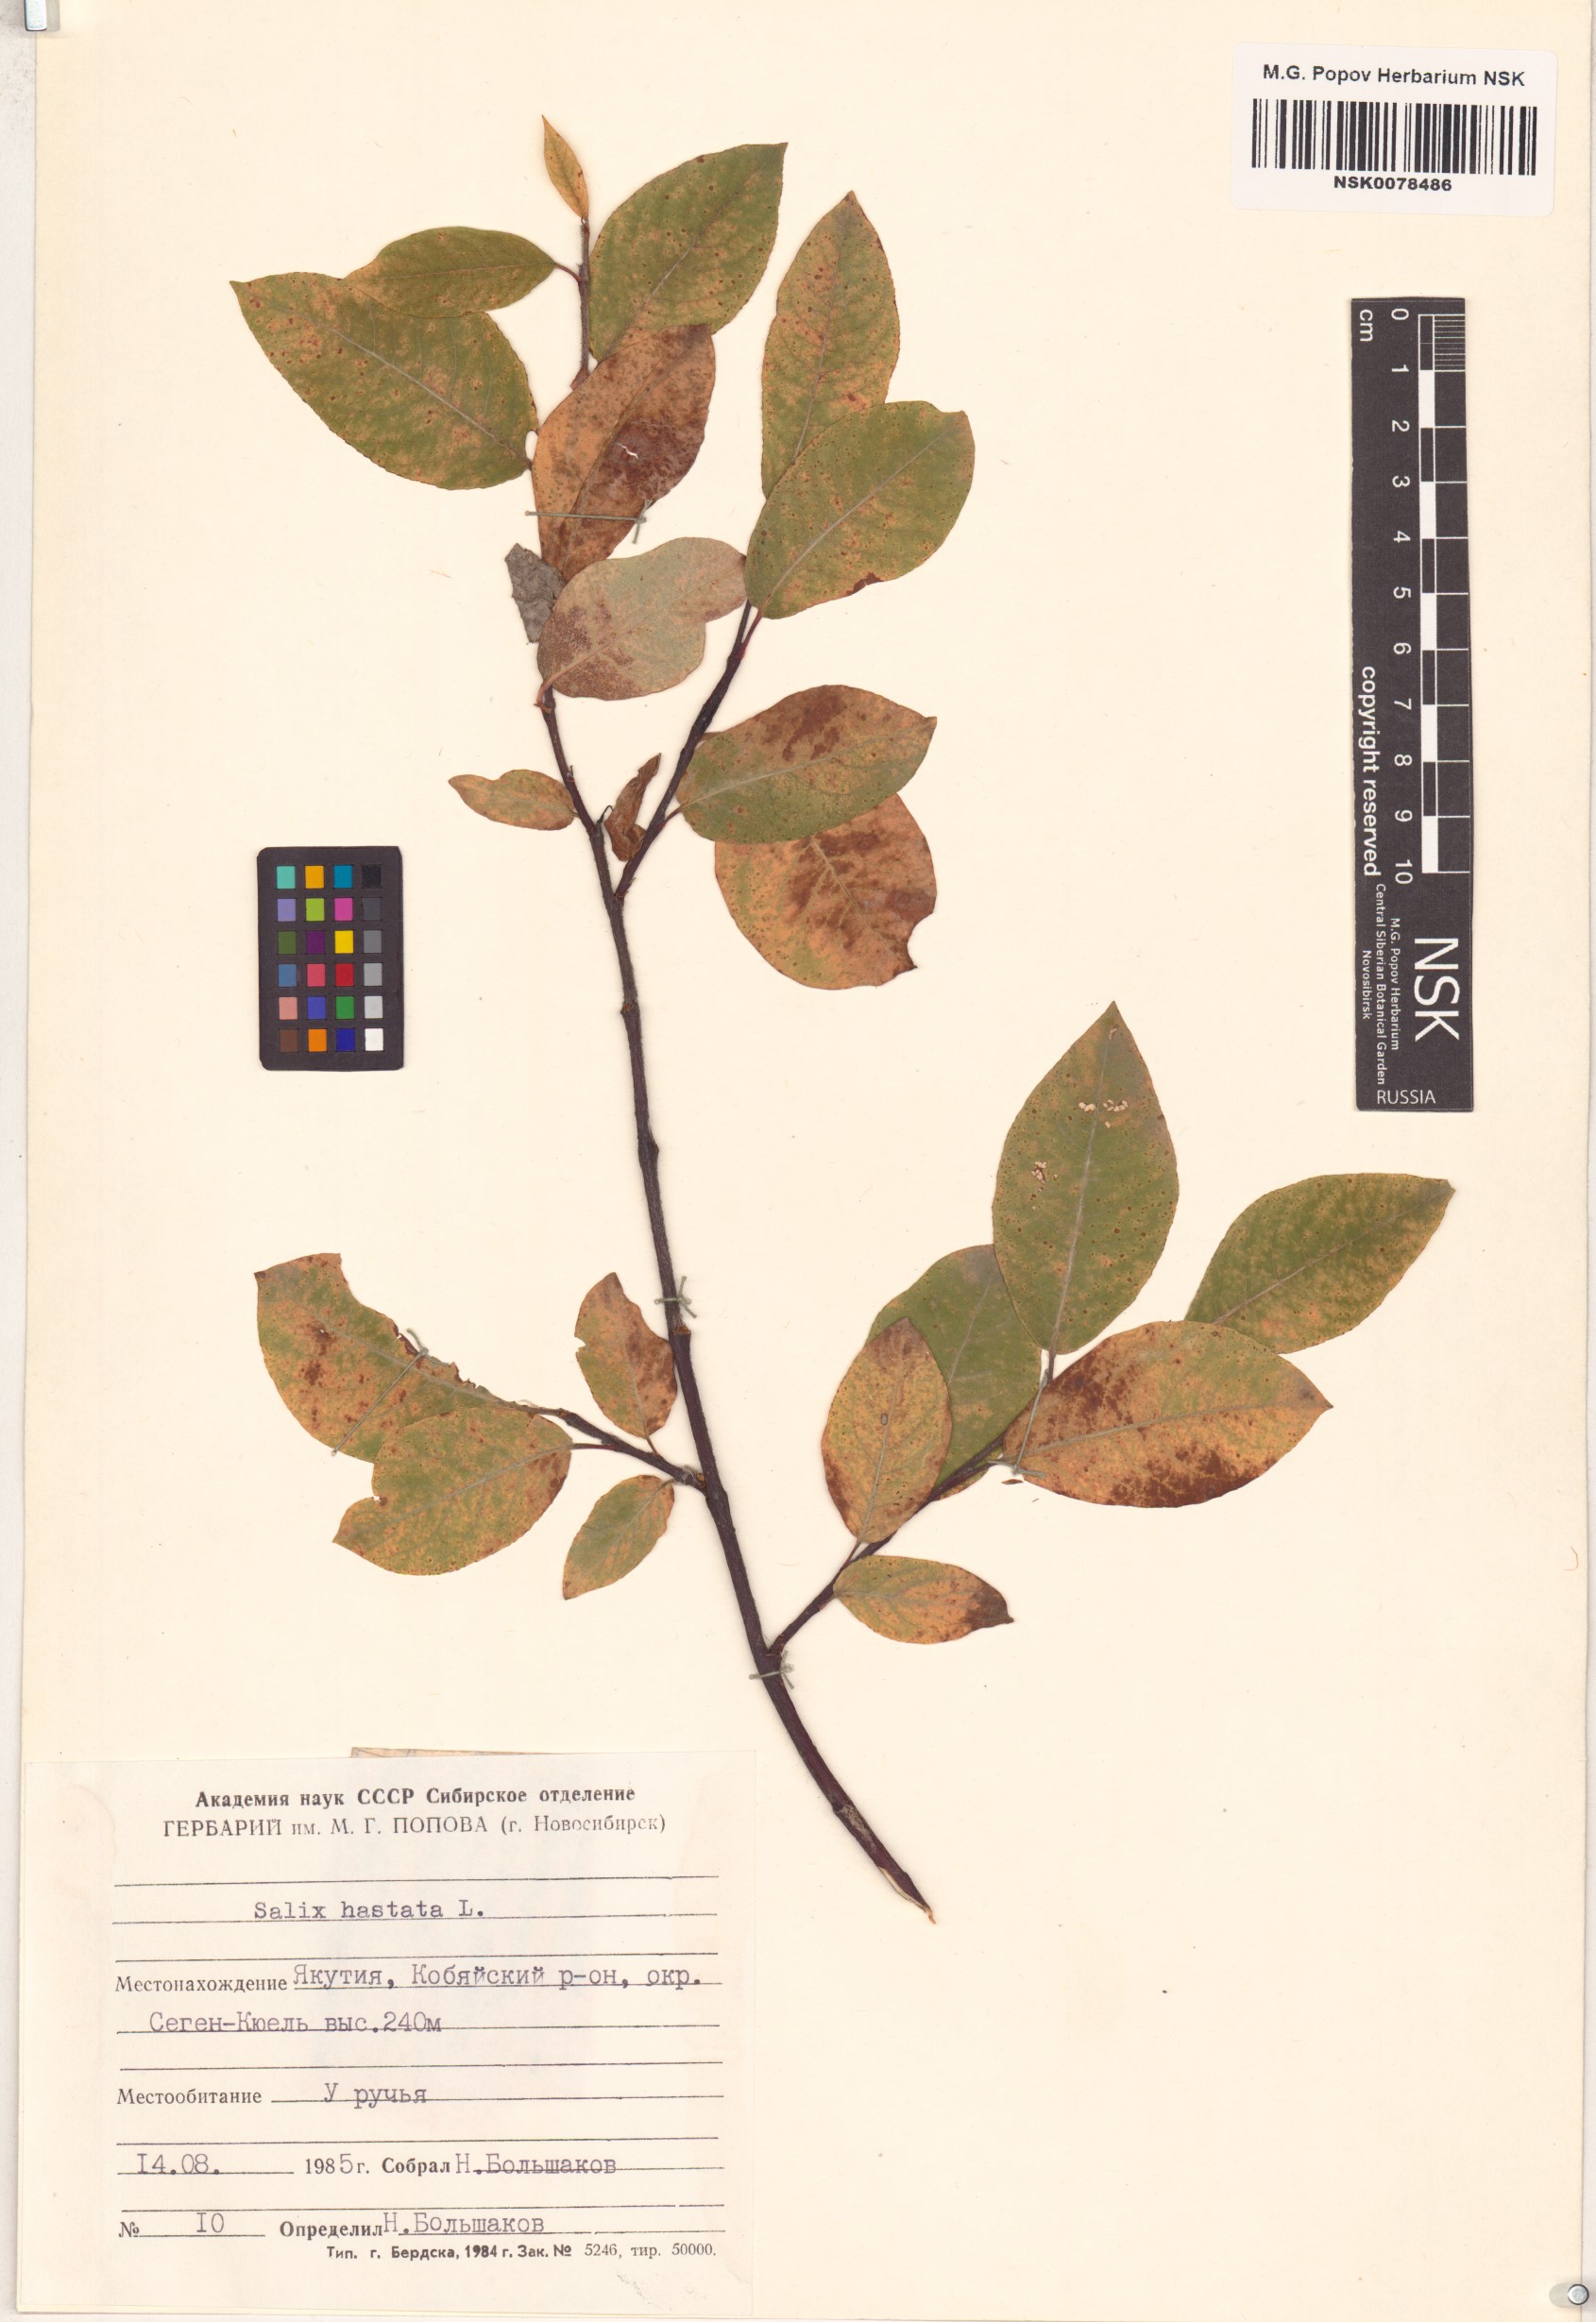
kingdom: Plantae
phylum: Tracheophyta
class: Magnoliopsida
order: Malpighiales
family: Salicaceae
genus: Salix
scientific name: Salix hastata
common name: Halberd willow
